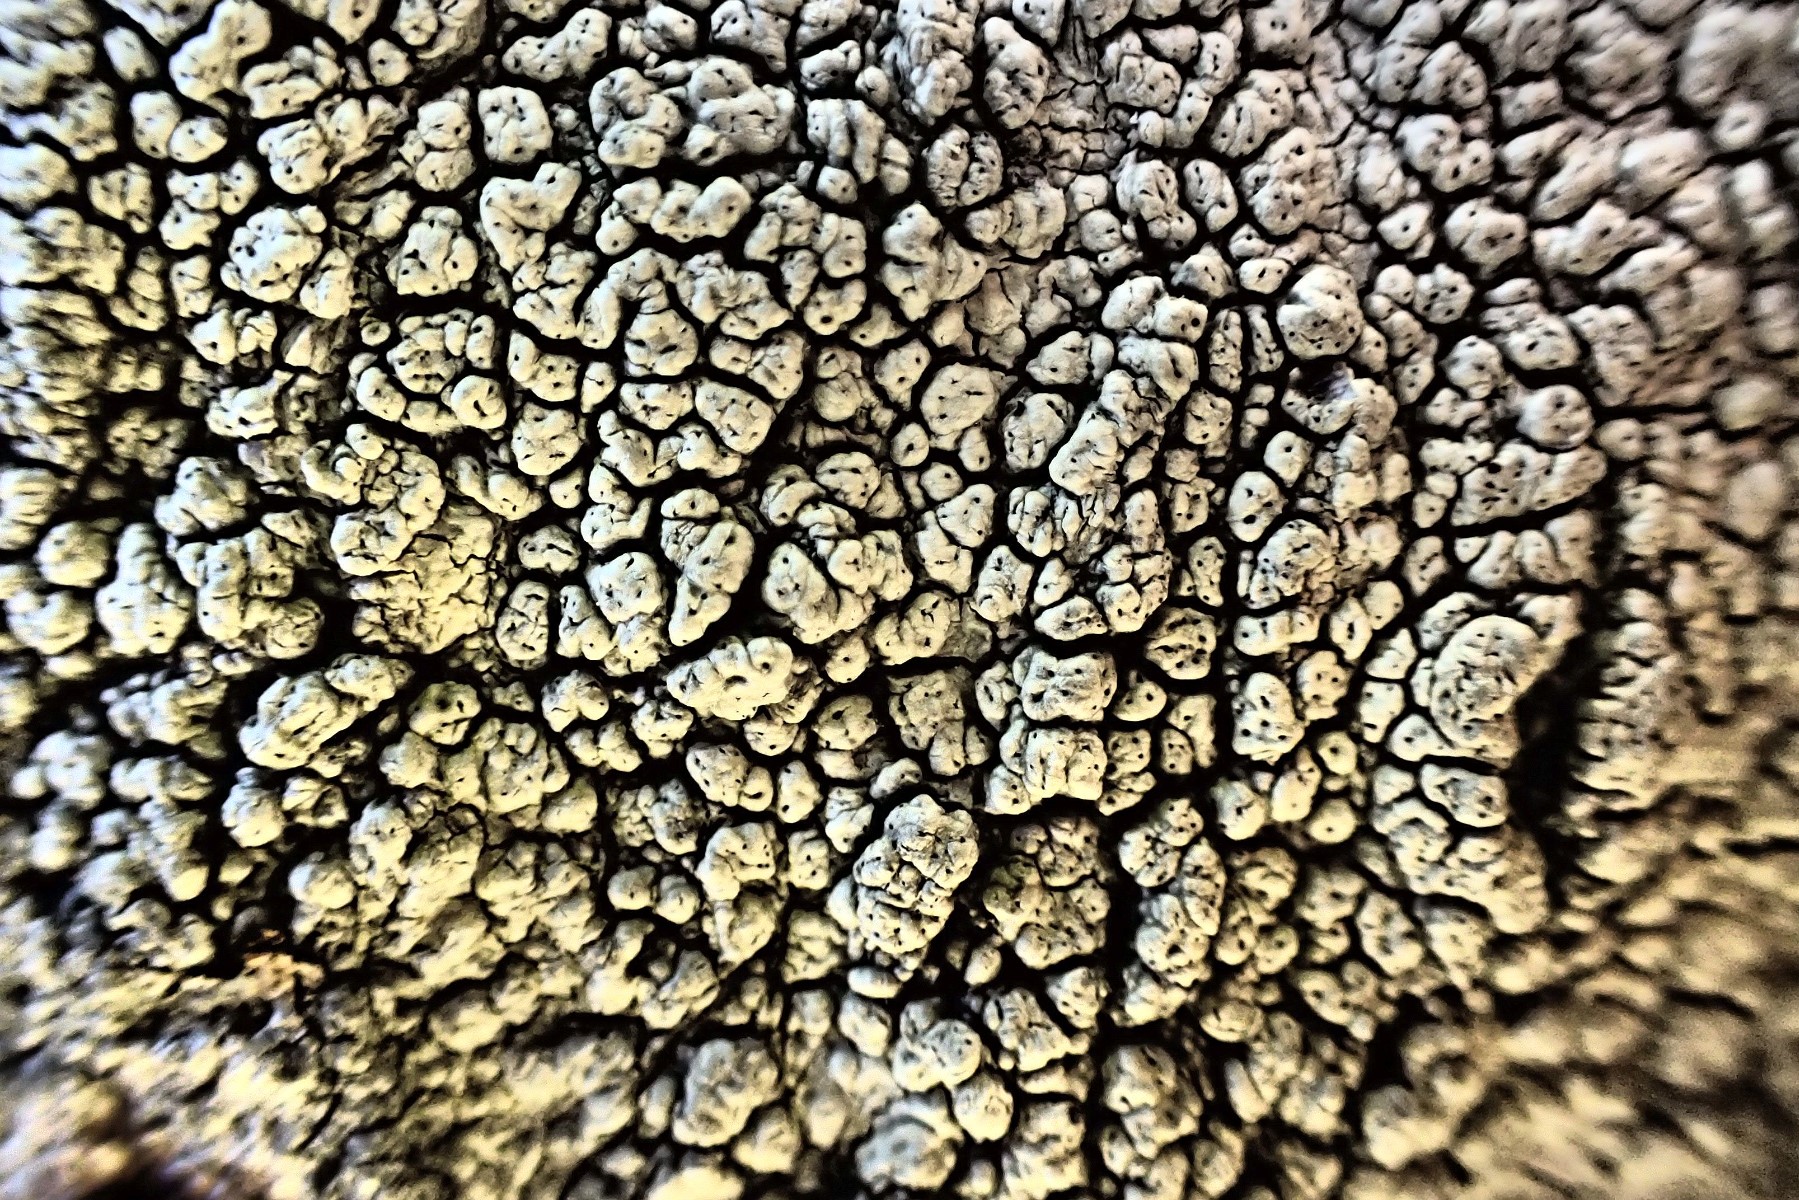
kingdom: Fungi
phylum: Ascomycota
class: Lecanoromycetes
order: Pertusariales
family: Pertusariaceae
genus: Pertusaria
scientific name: Pertusaria pertusa
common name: almindelig prikvortelav
